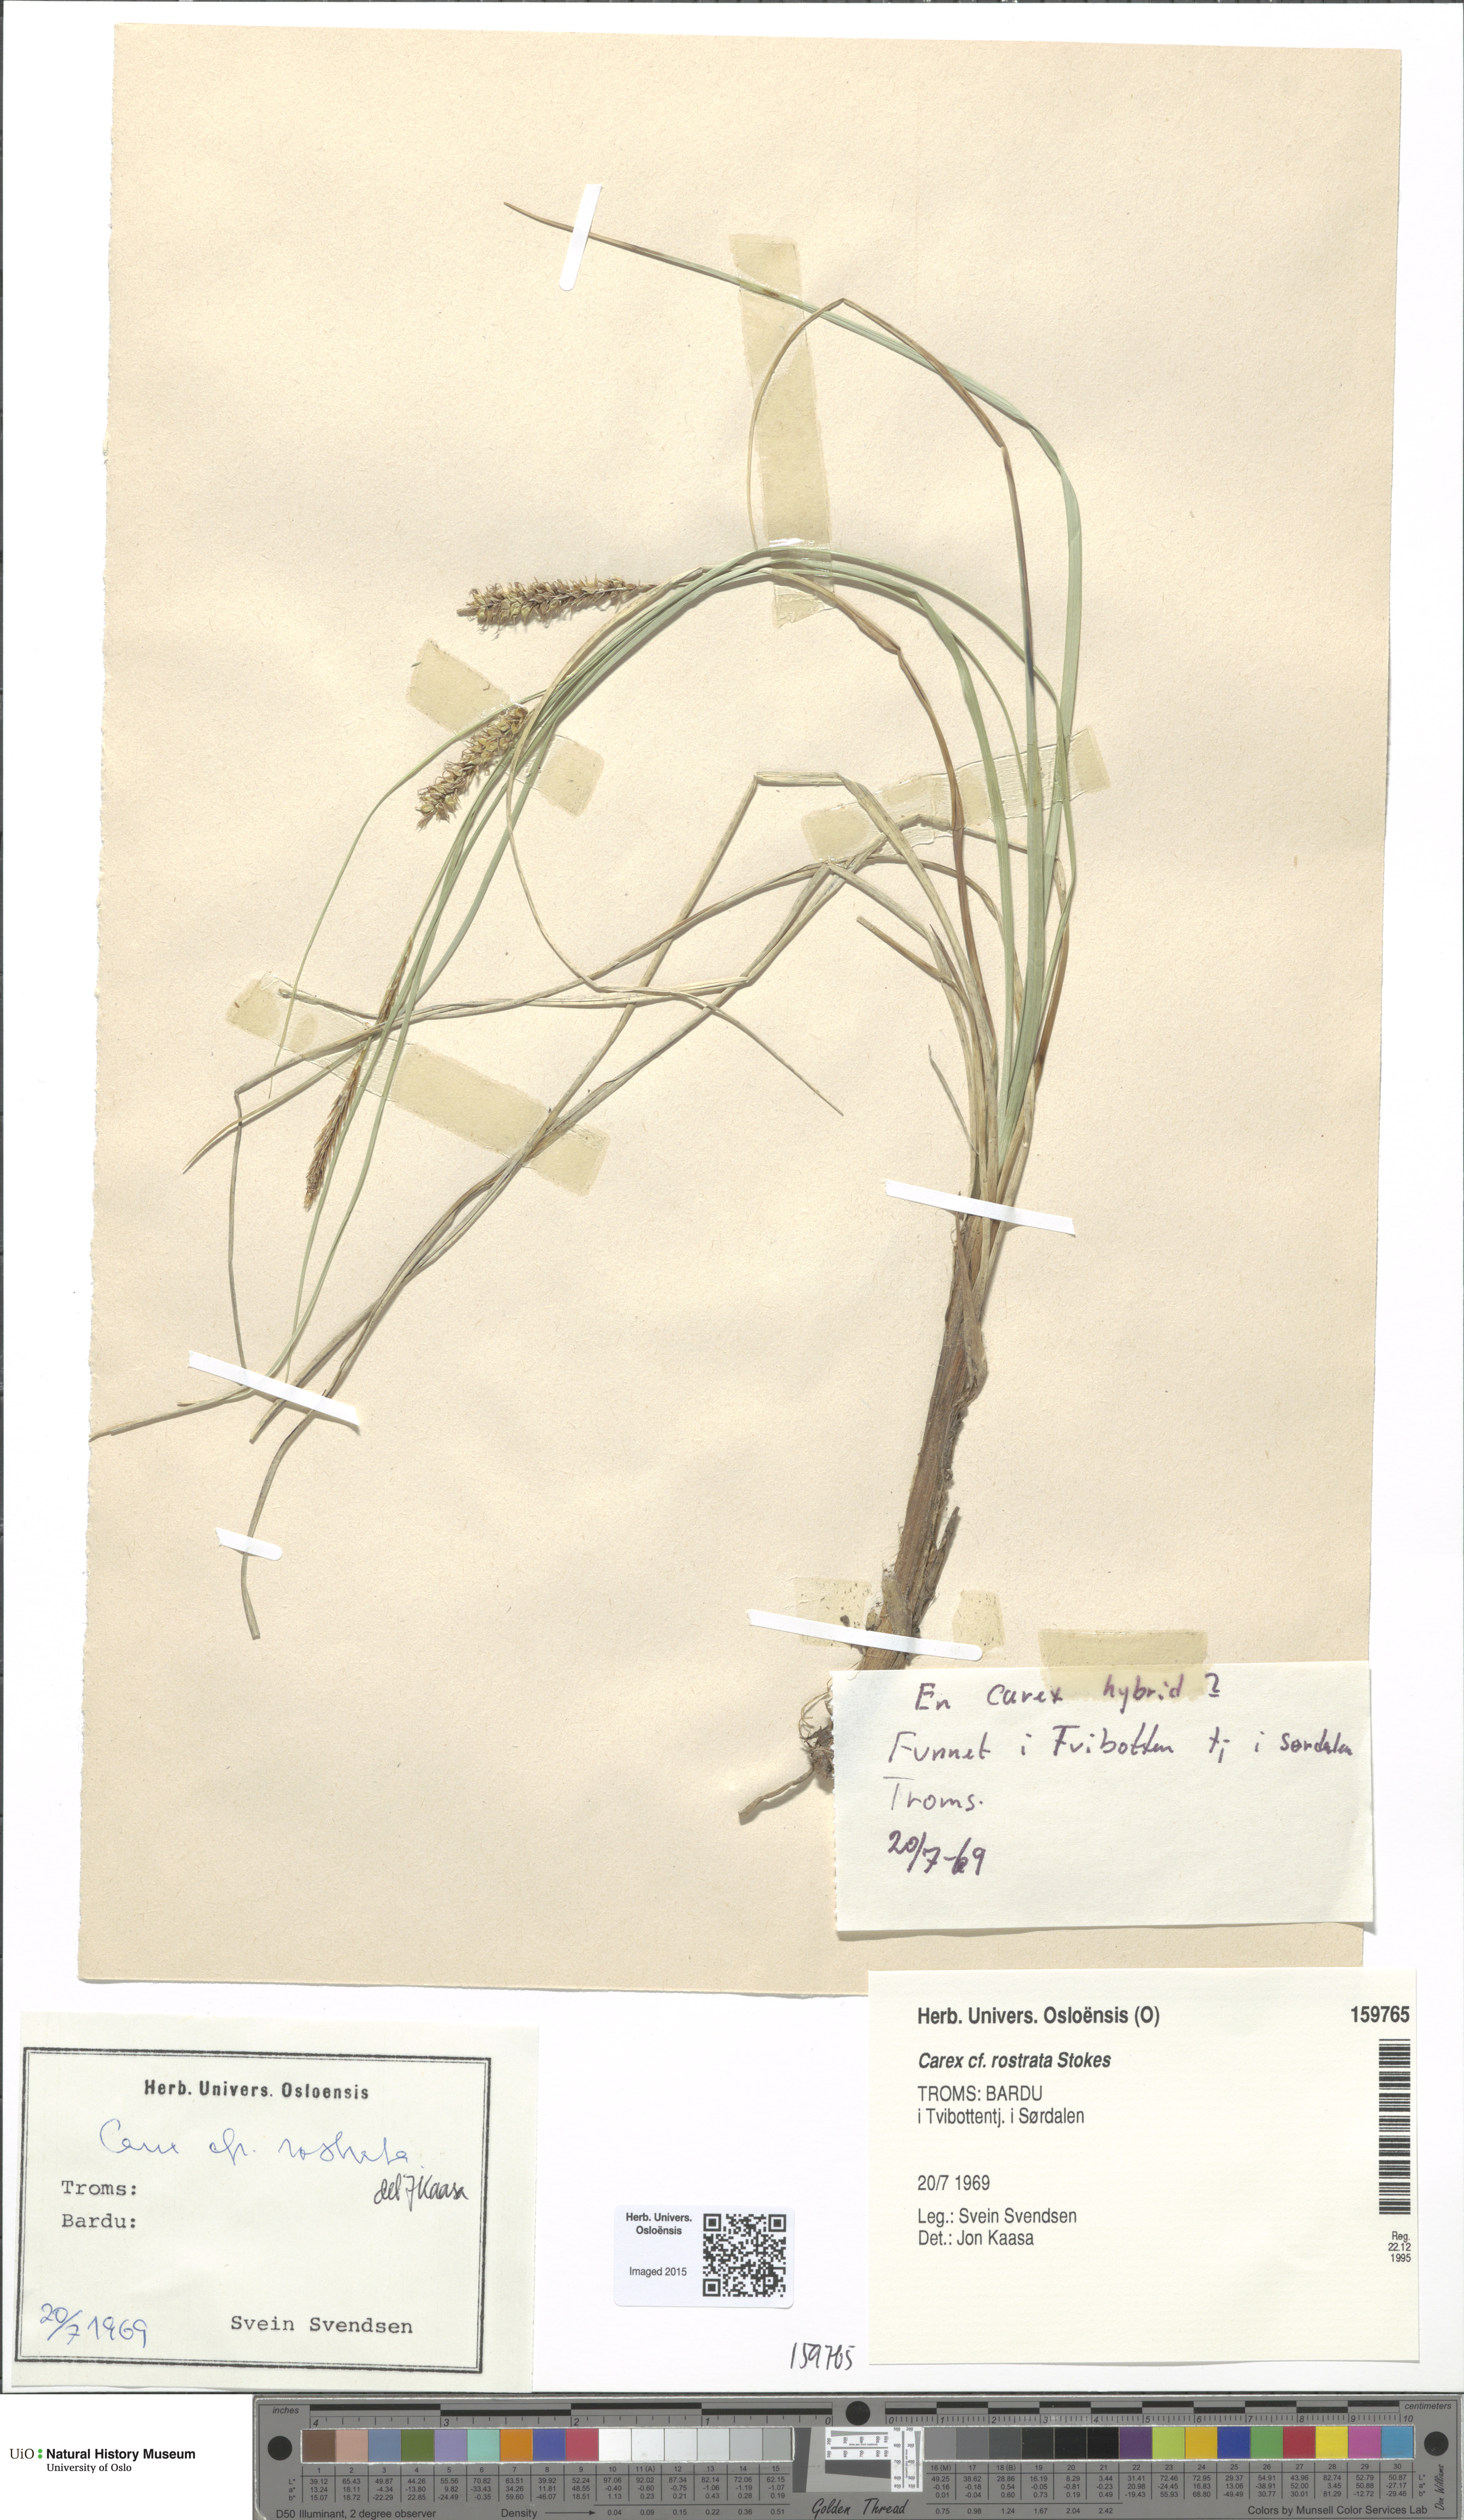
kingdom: Plantae
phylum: Tracheophyta
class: Liliopsida
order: Poales
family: Cyperaceae
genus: Carex
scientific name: Carex rostrata
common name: Bottle sedge
